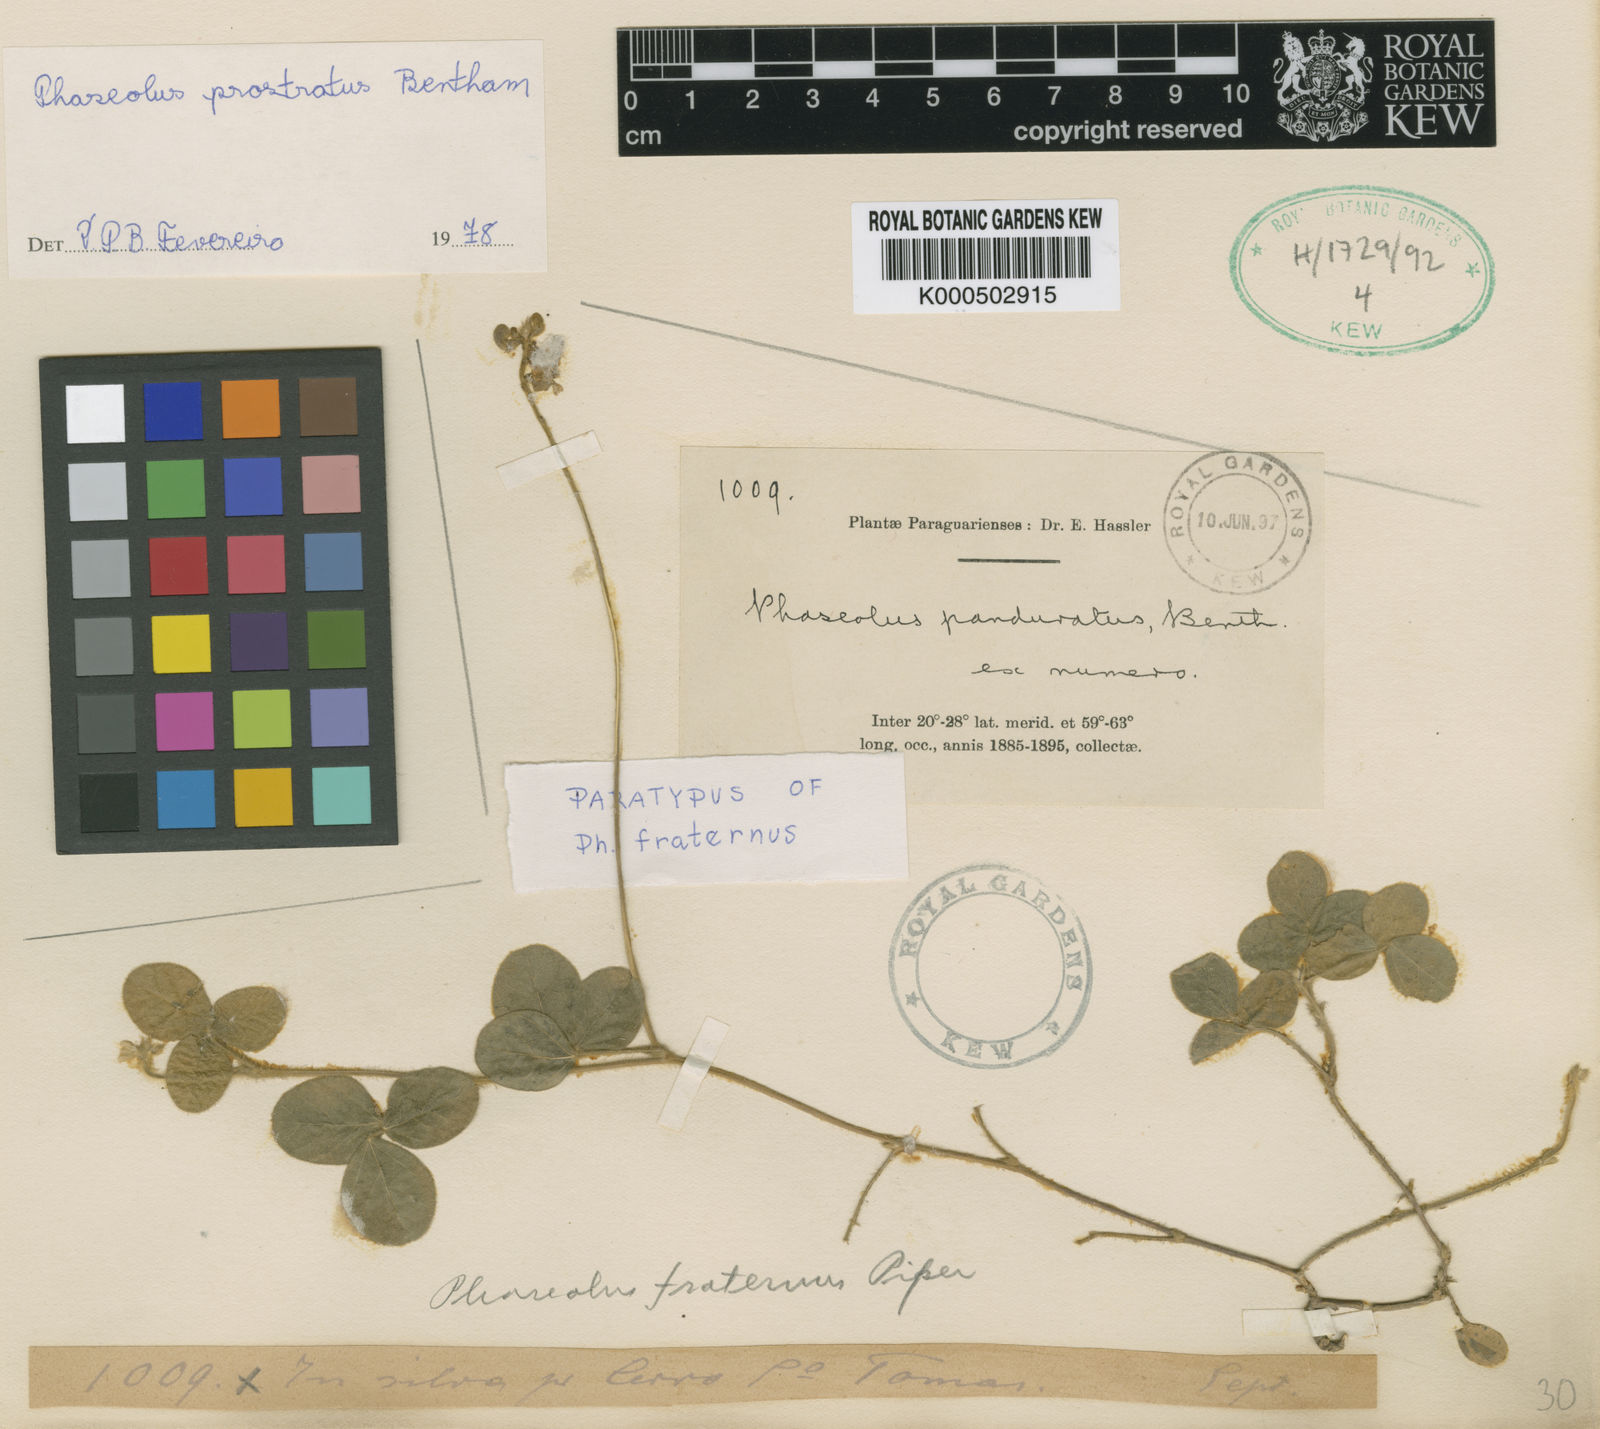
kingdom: Plantae
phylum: Tracheophyta
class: Magnoliopsida
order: Fabales
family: Fabaceae
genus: Macroptilium
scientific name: Macroptilium
